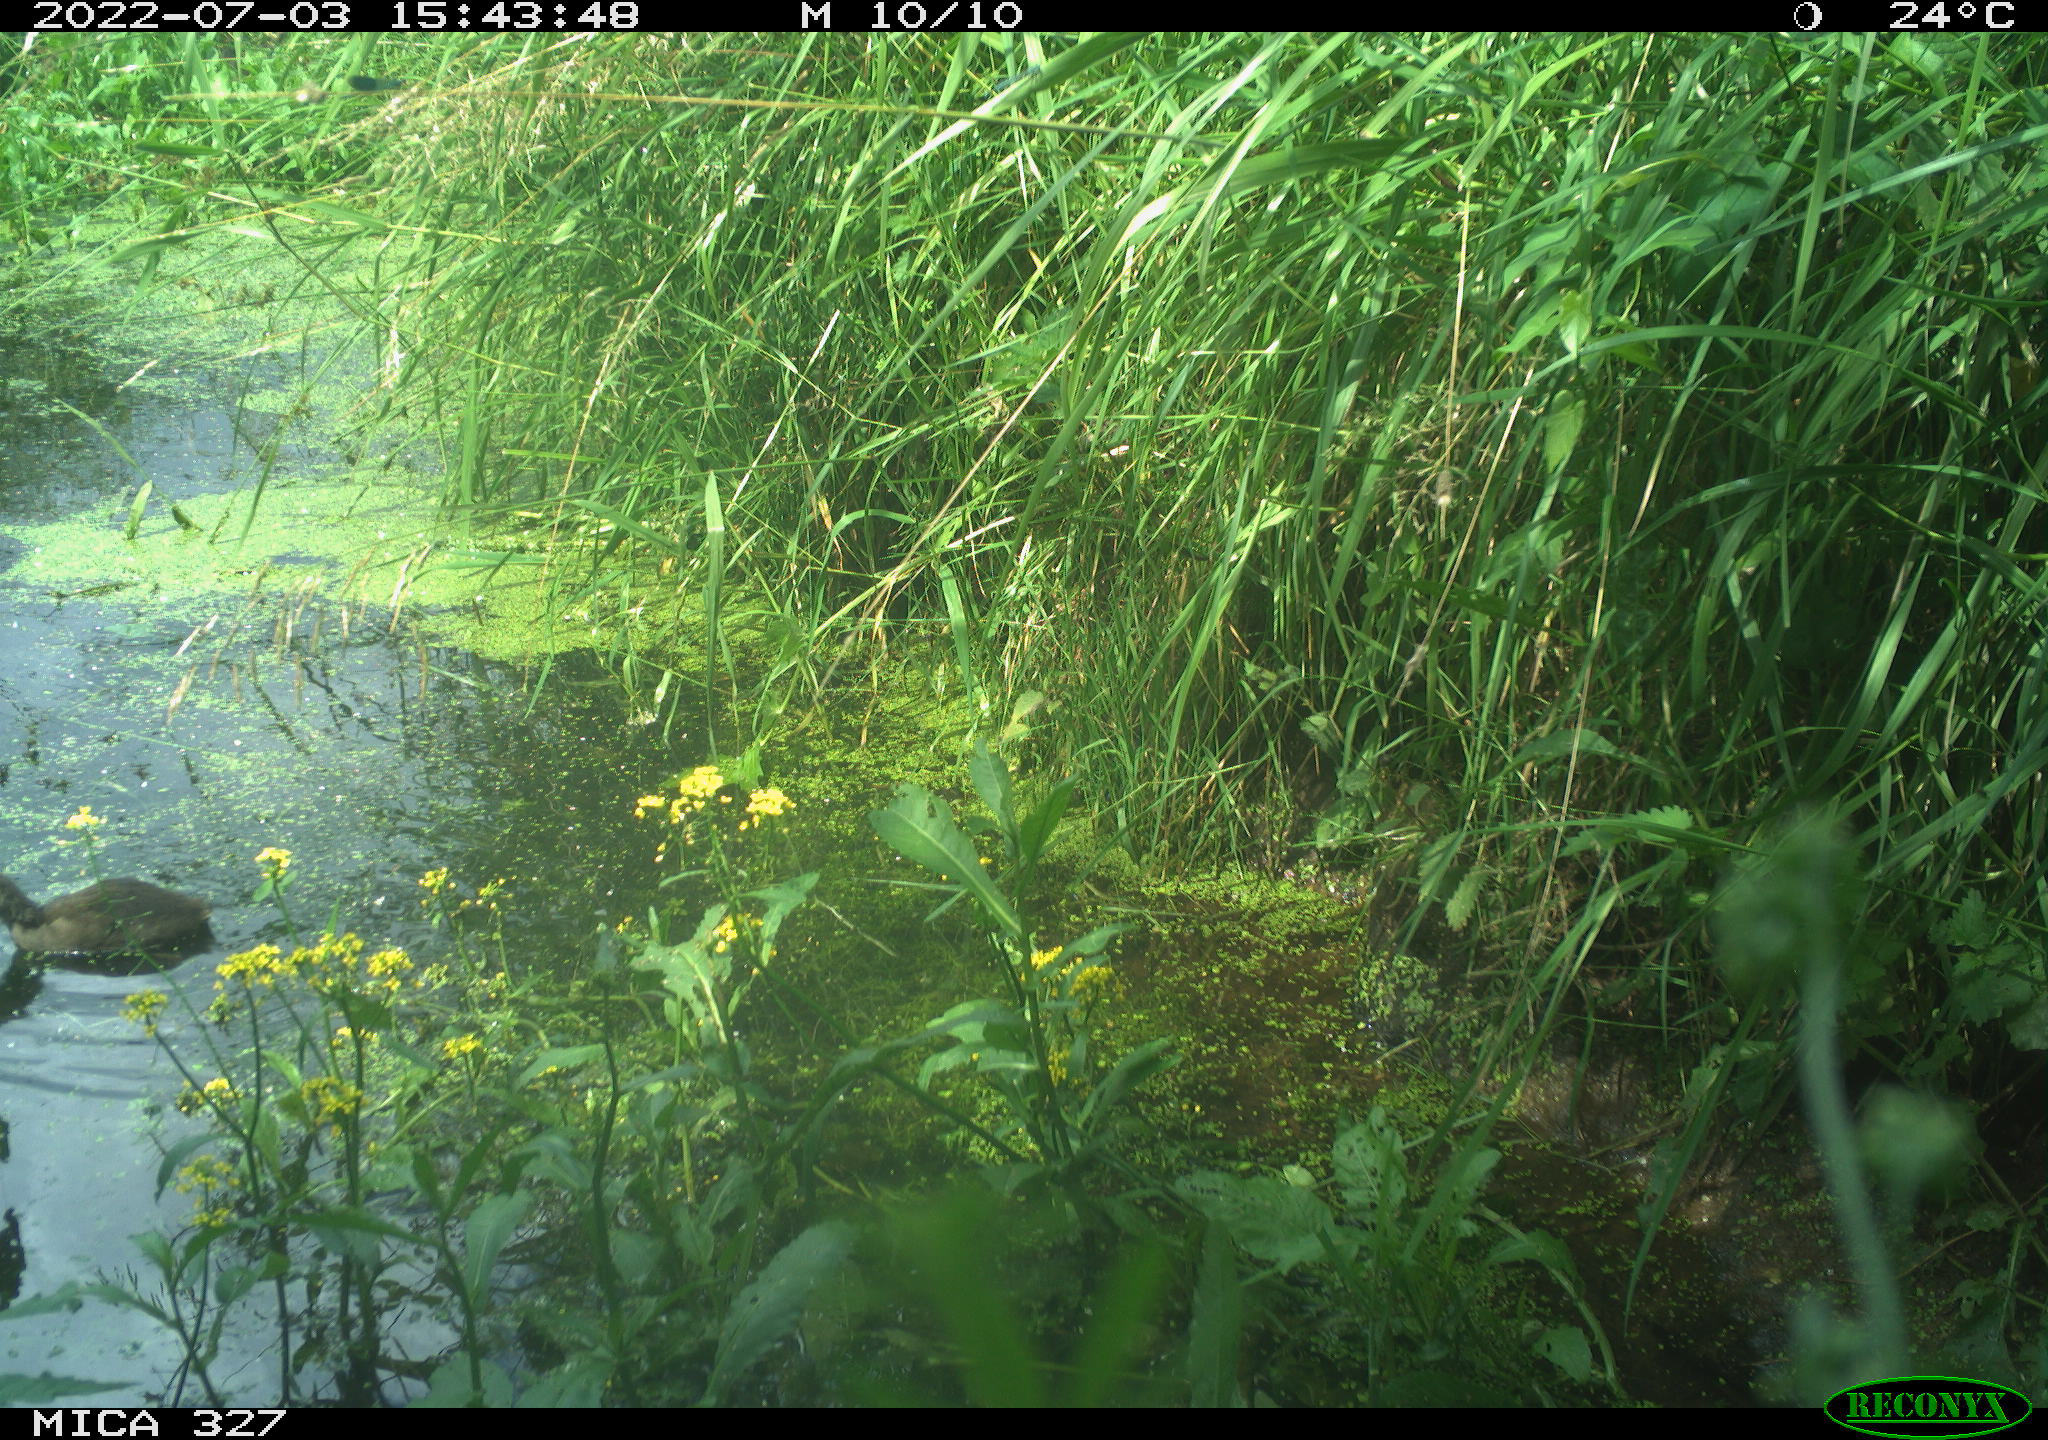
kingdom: Animalia
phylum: Chordata
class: Aves
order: Gruiformes
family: Rallidae
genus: Gallinula
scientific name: Gallinula chloropus
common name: Common moorhen
